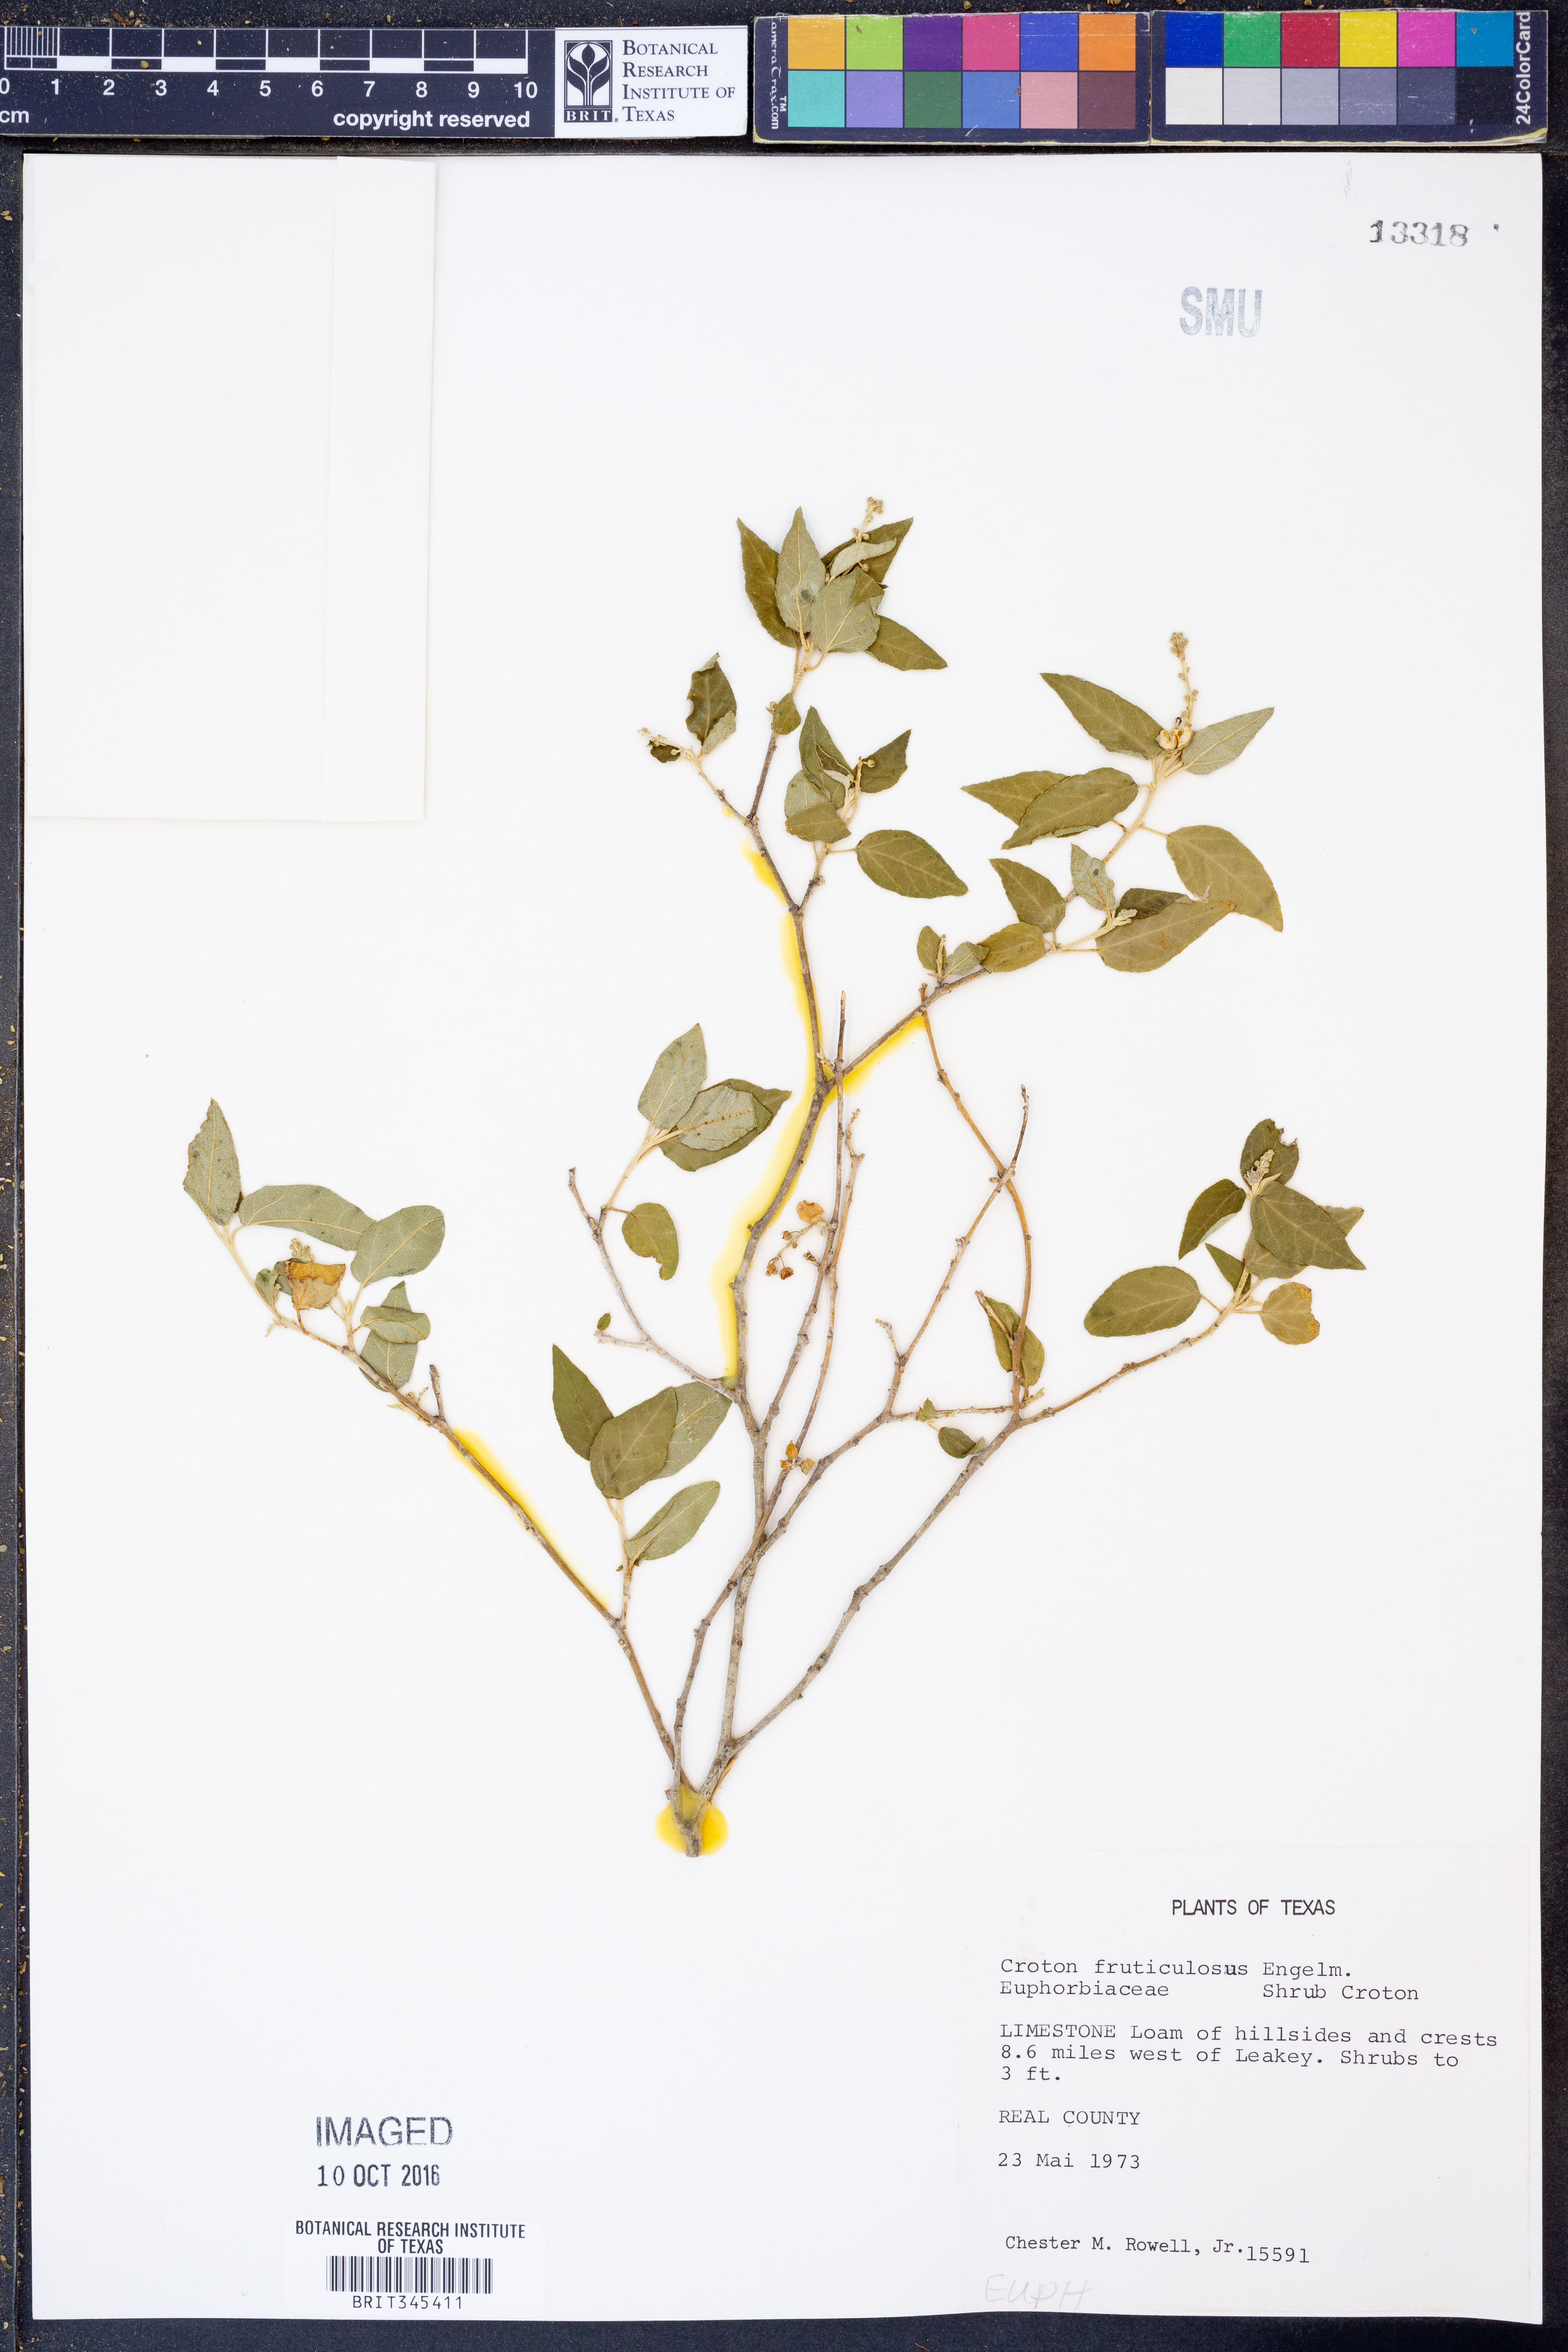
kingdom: Plantae
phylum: Tracheophyta
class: Magnoliopsida
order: Malpighiales
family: Euphorbiaceae
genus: Croton
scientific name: Croton fruticulosus
